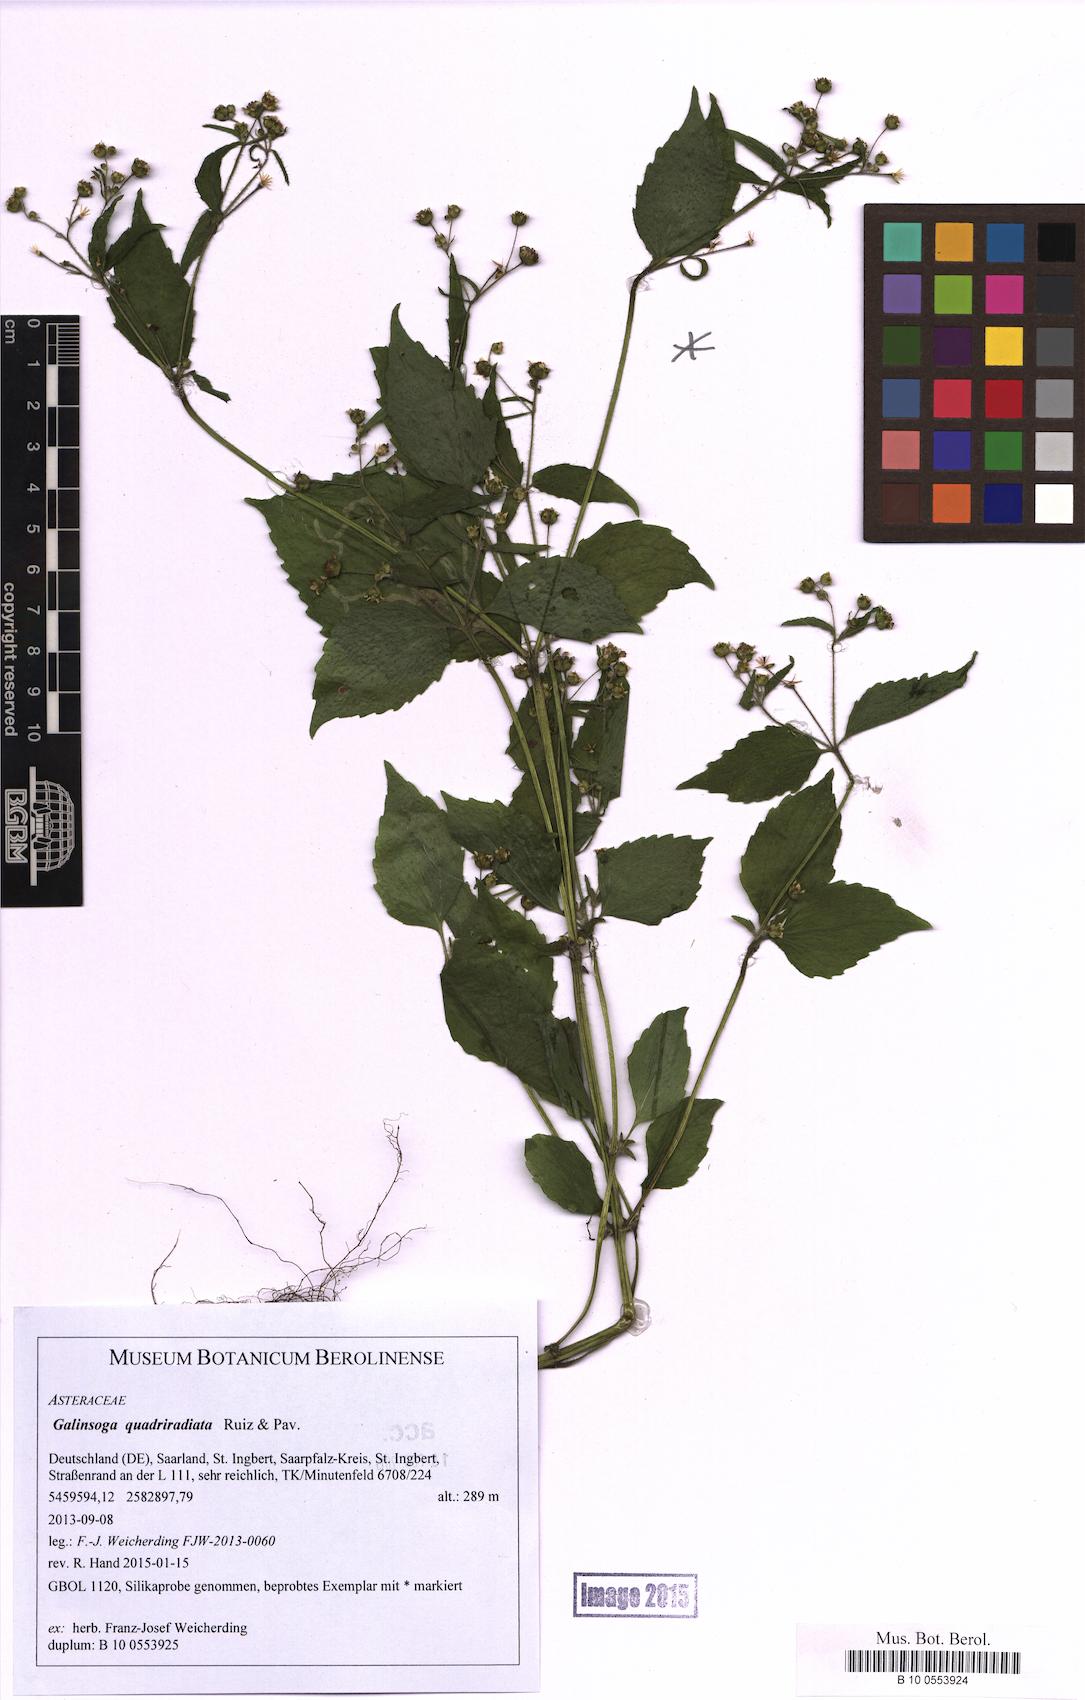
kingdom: Plantae
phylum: Tracheophyta
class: Magnoliopsida
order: Asterales
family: Asteraceae
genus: Galinsoga
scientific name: Galinsoga quadriradiata
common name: Shaggy soldier
